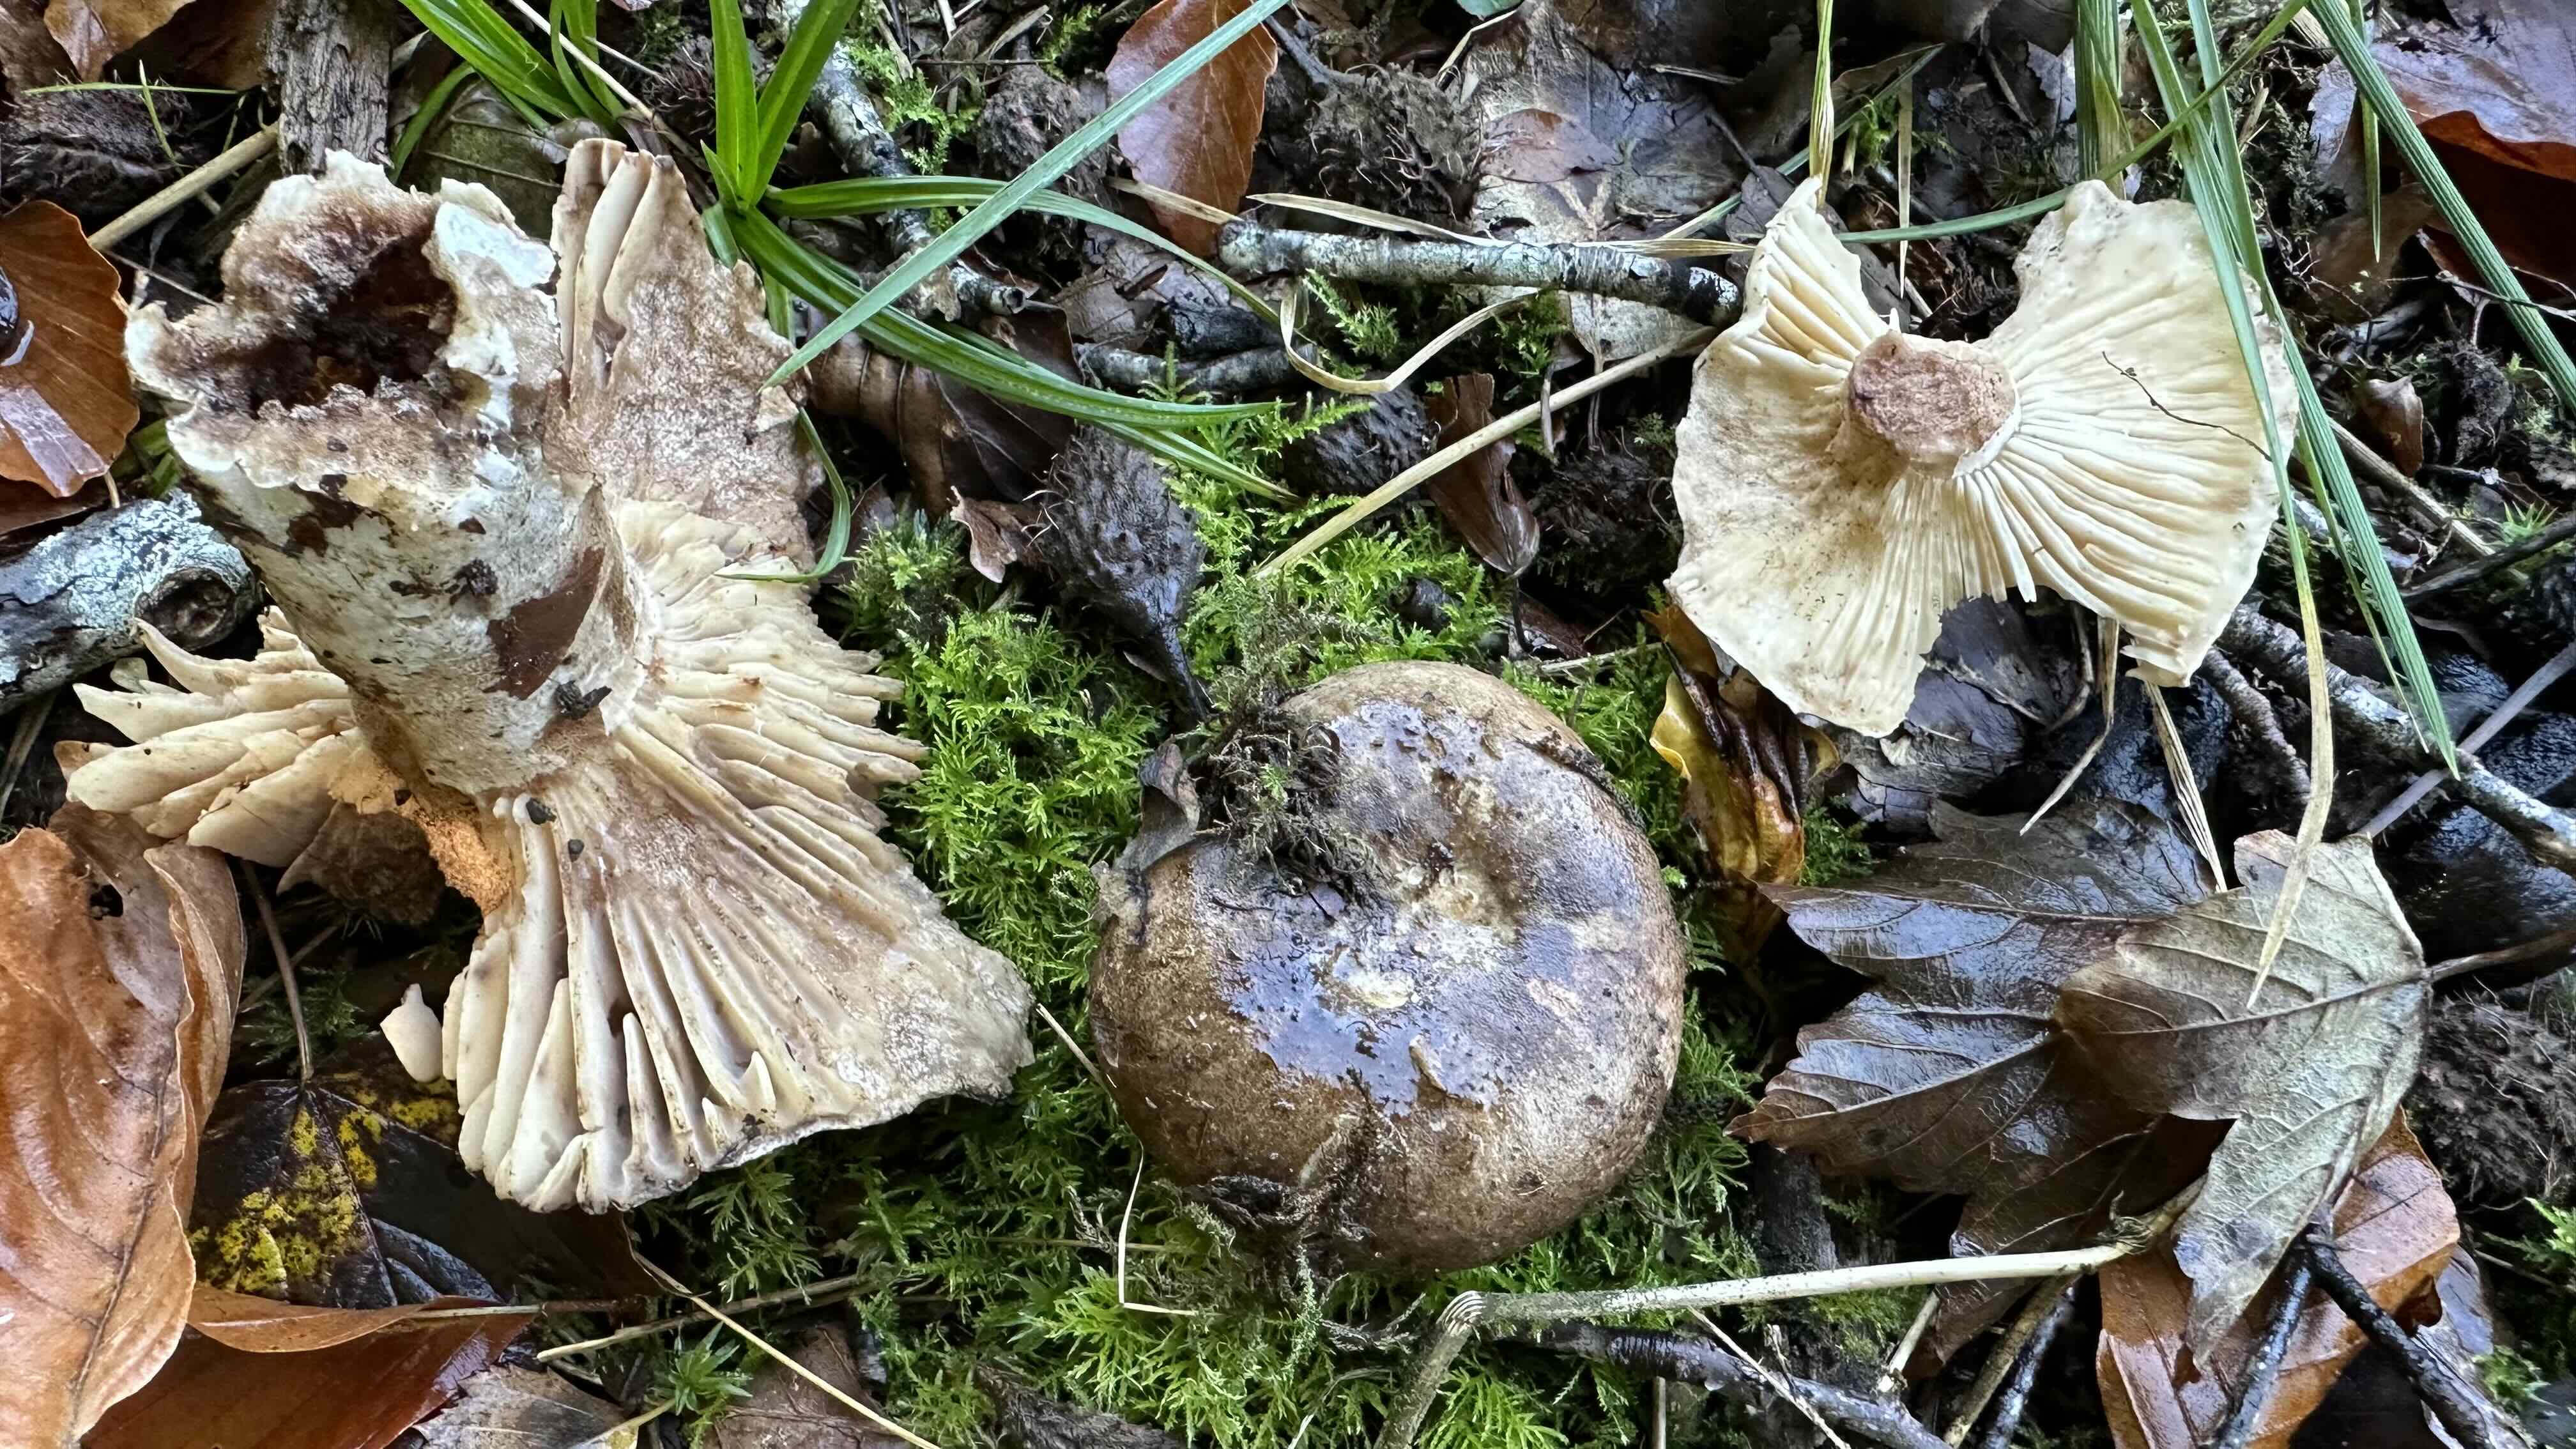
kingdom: Fungi
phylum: Basidiomycota
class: Agaricomycetes
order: Russulales
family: Russulaceae
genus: Russula
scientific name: Russula adusta
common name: sværtende skørhat
